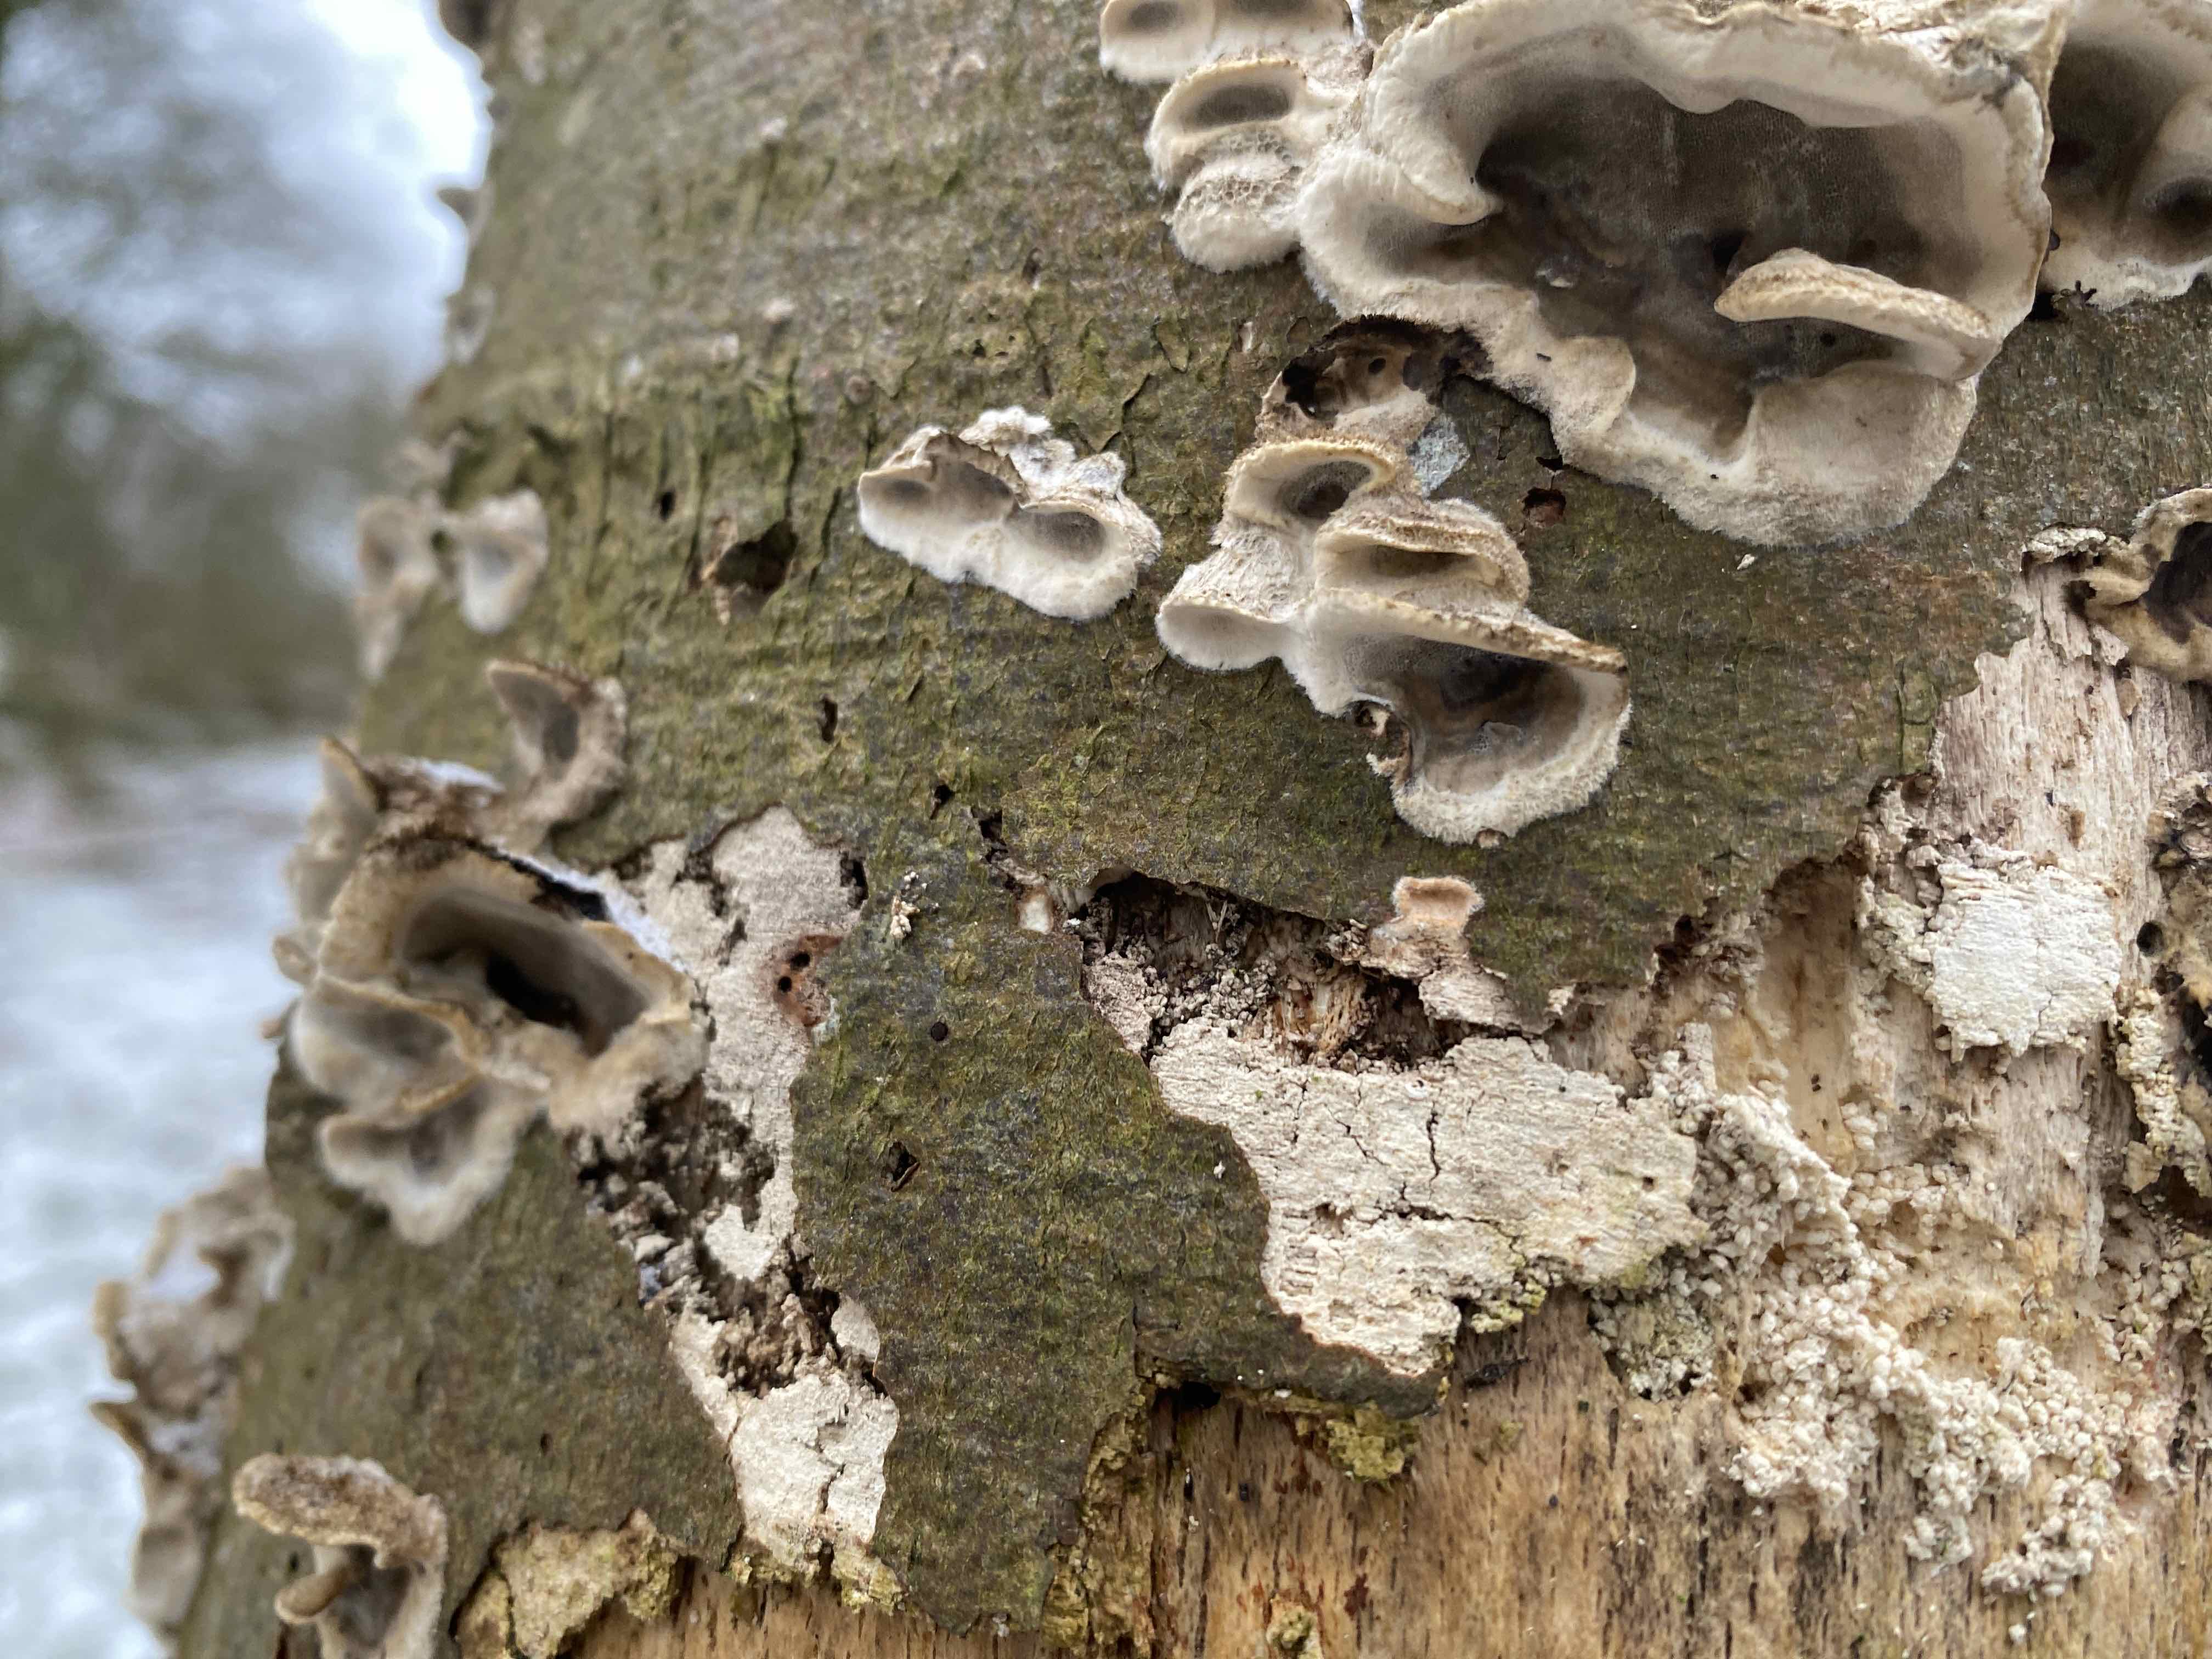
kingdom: Fungi
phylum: Basidiomycota
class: Agaricomycetes
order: Polyporales
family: Phanerochaetaceae
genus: Bjerkandera
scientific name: Bjerkandera adusta
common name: sveden sodporesvamp
